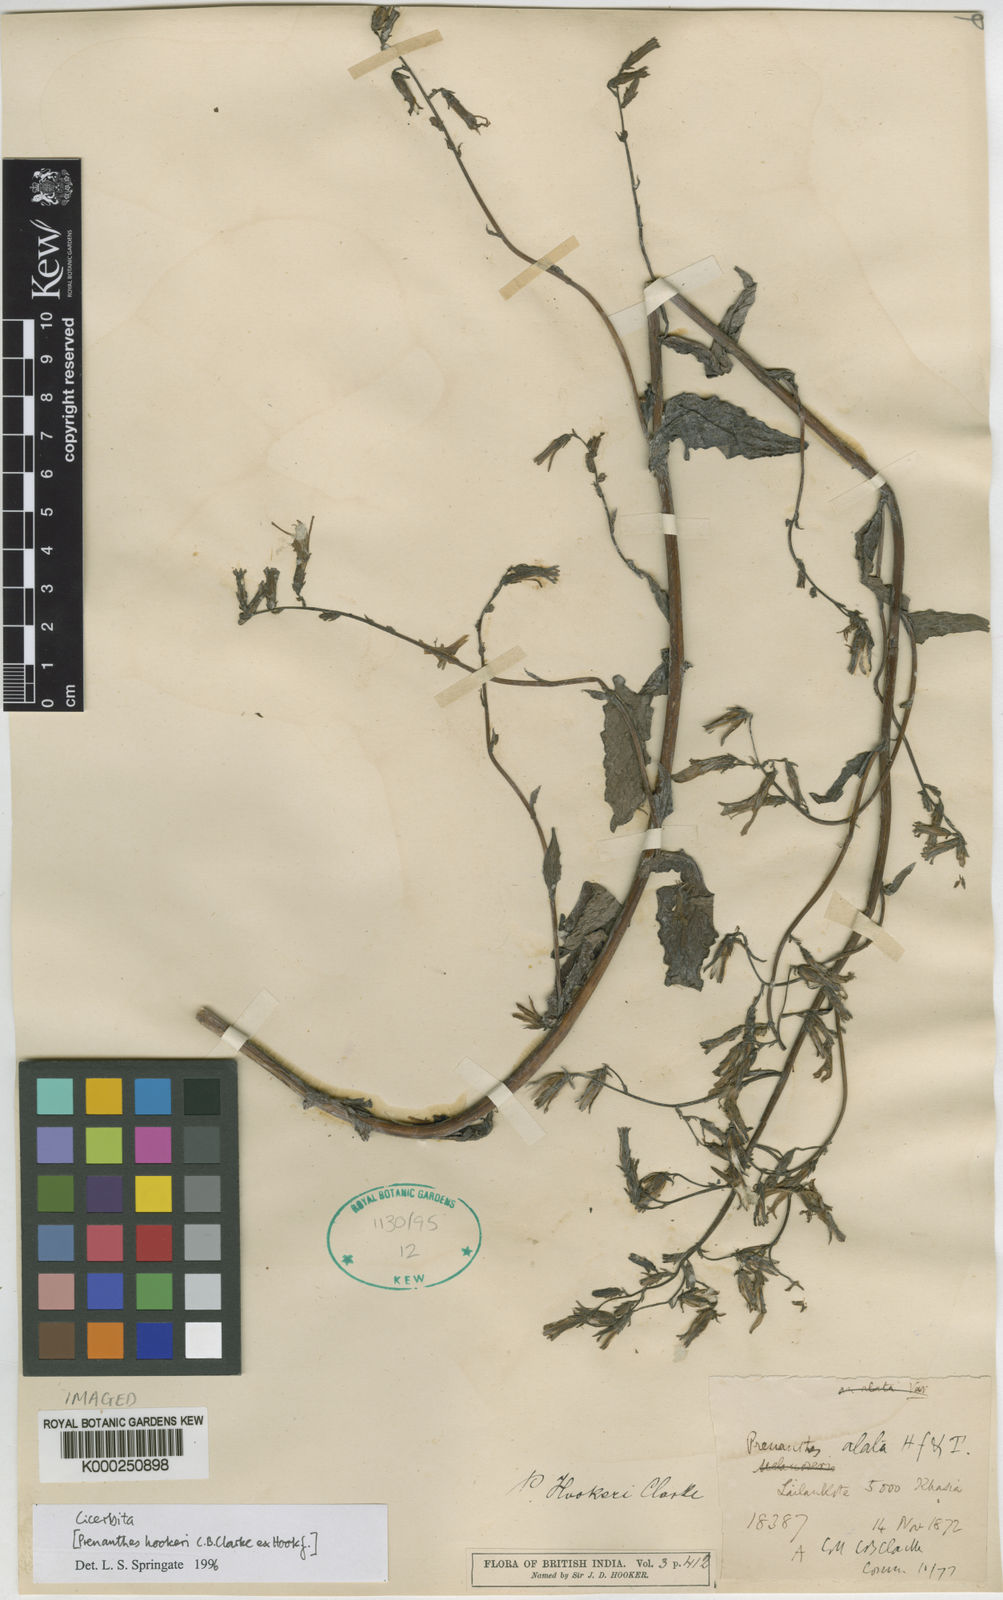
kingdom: Plantae
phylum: Tracheophyta
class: Magnoliopsida
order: Asterales
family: Asteraceae
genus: Cicerbita
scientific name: Cicerbita
